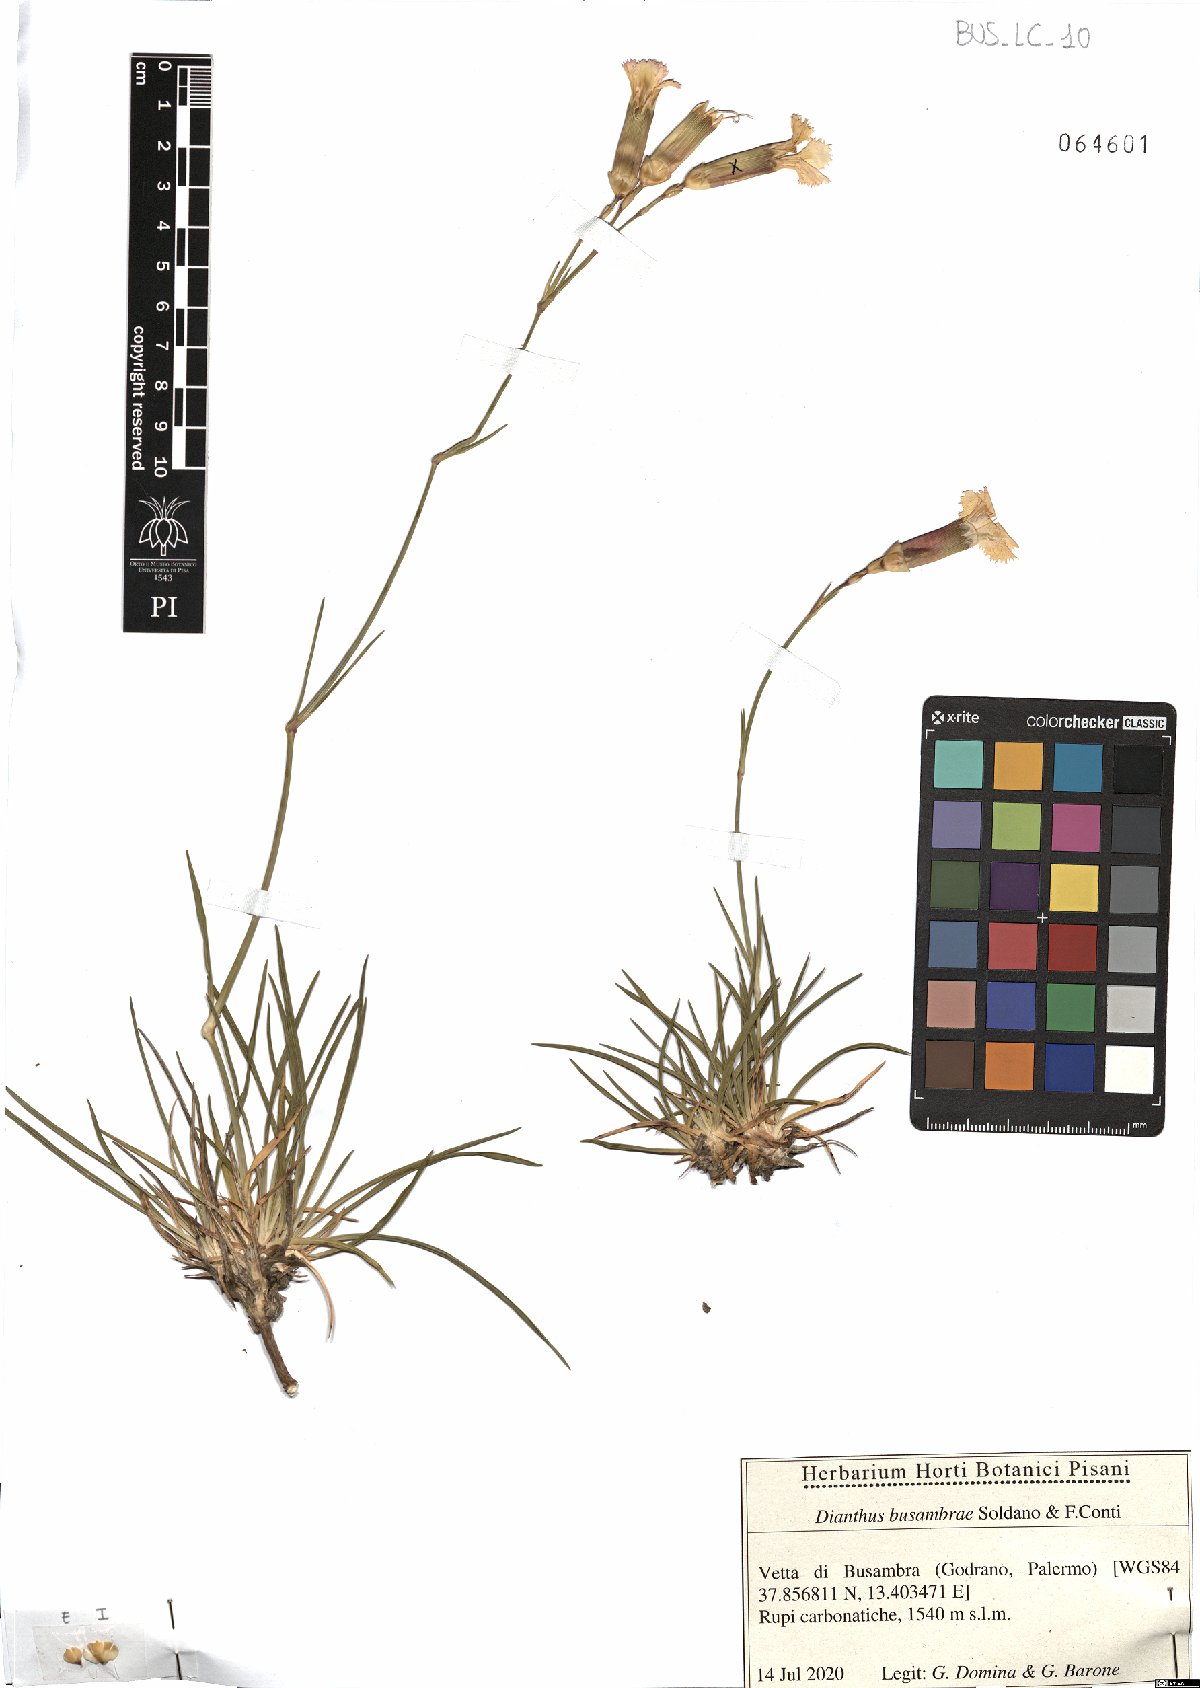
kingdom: Plantae
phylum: Tracheophyta
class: Magnoliopsida
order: Caryophyllales
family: Caryophyllaceae
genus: Dianthus
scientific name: Dianthus busambrae
